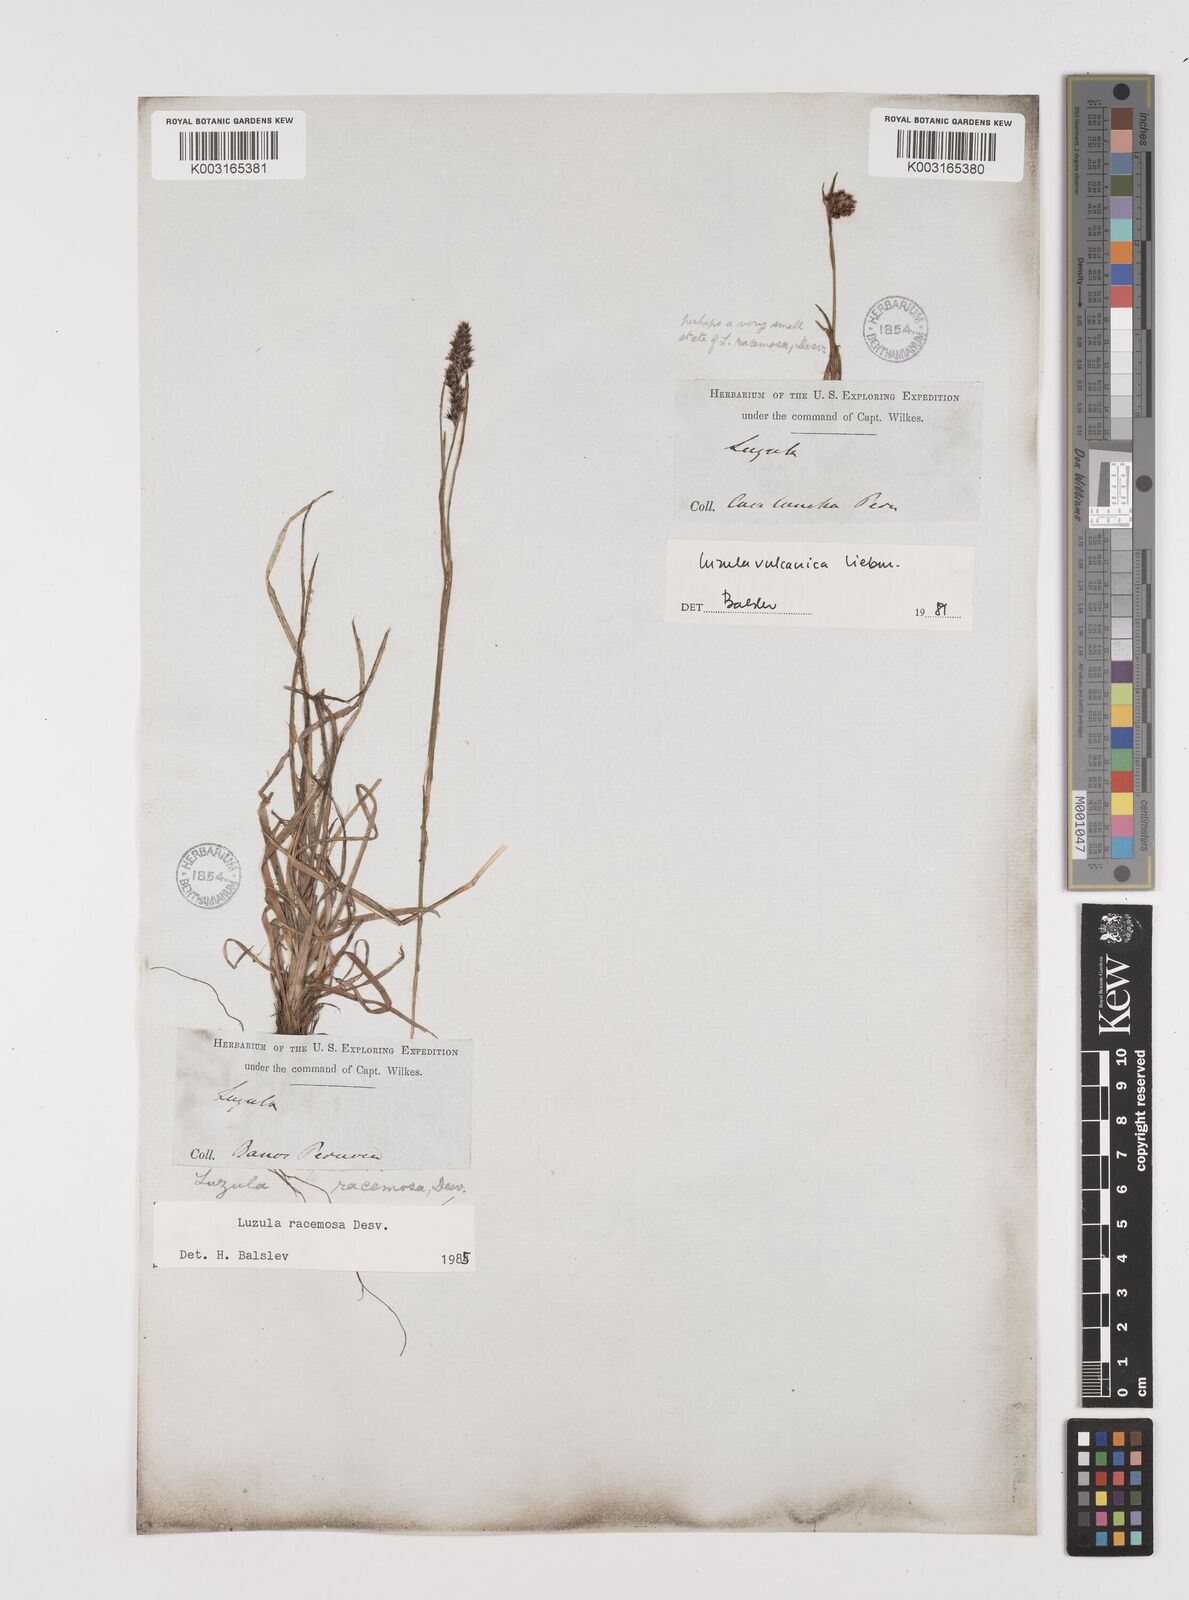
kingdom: Plantae
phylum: Tracheophyta
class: Liliopsida
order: Poales
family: Juncaceae
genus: Luzula
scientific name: Luzula vulcanica
